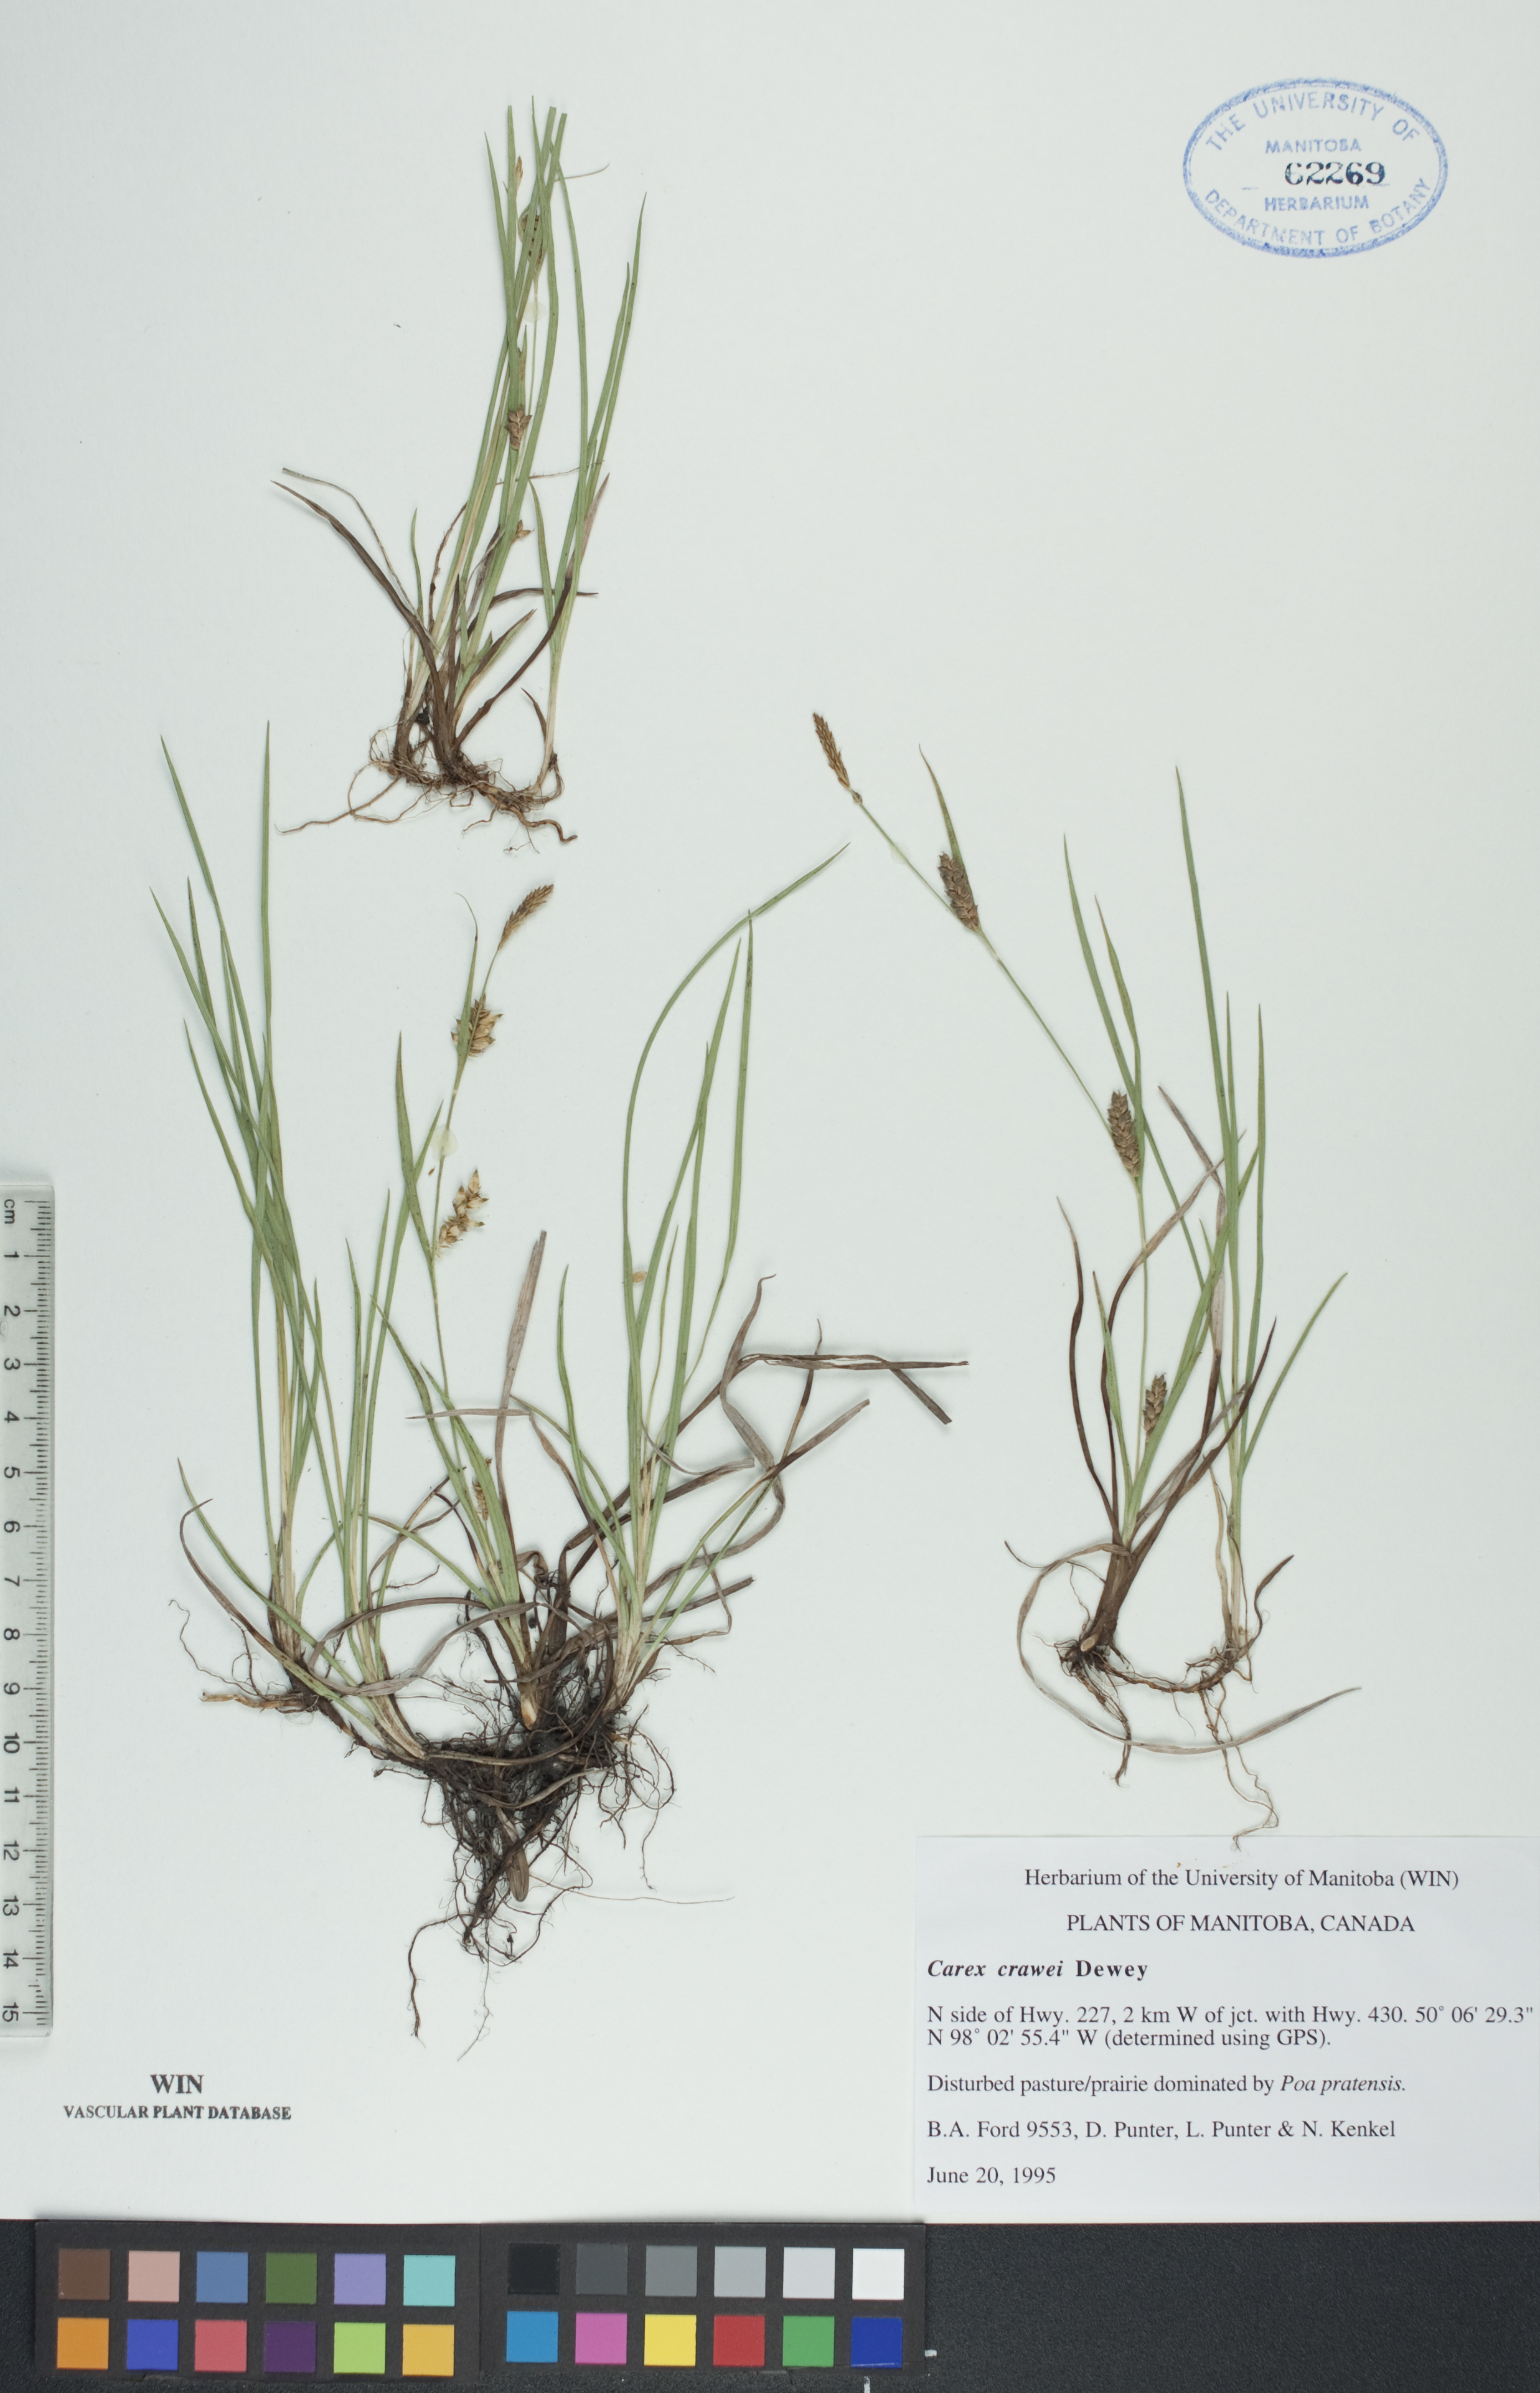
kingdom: Plantae
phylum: Tracheophyta
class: Liliopsida
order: Poales
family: Cyperaceae
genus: Carex
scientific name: Carex crawei
